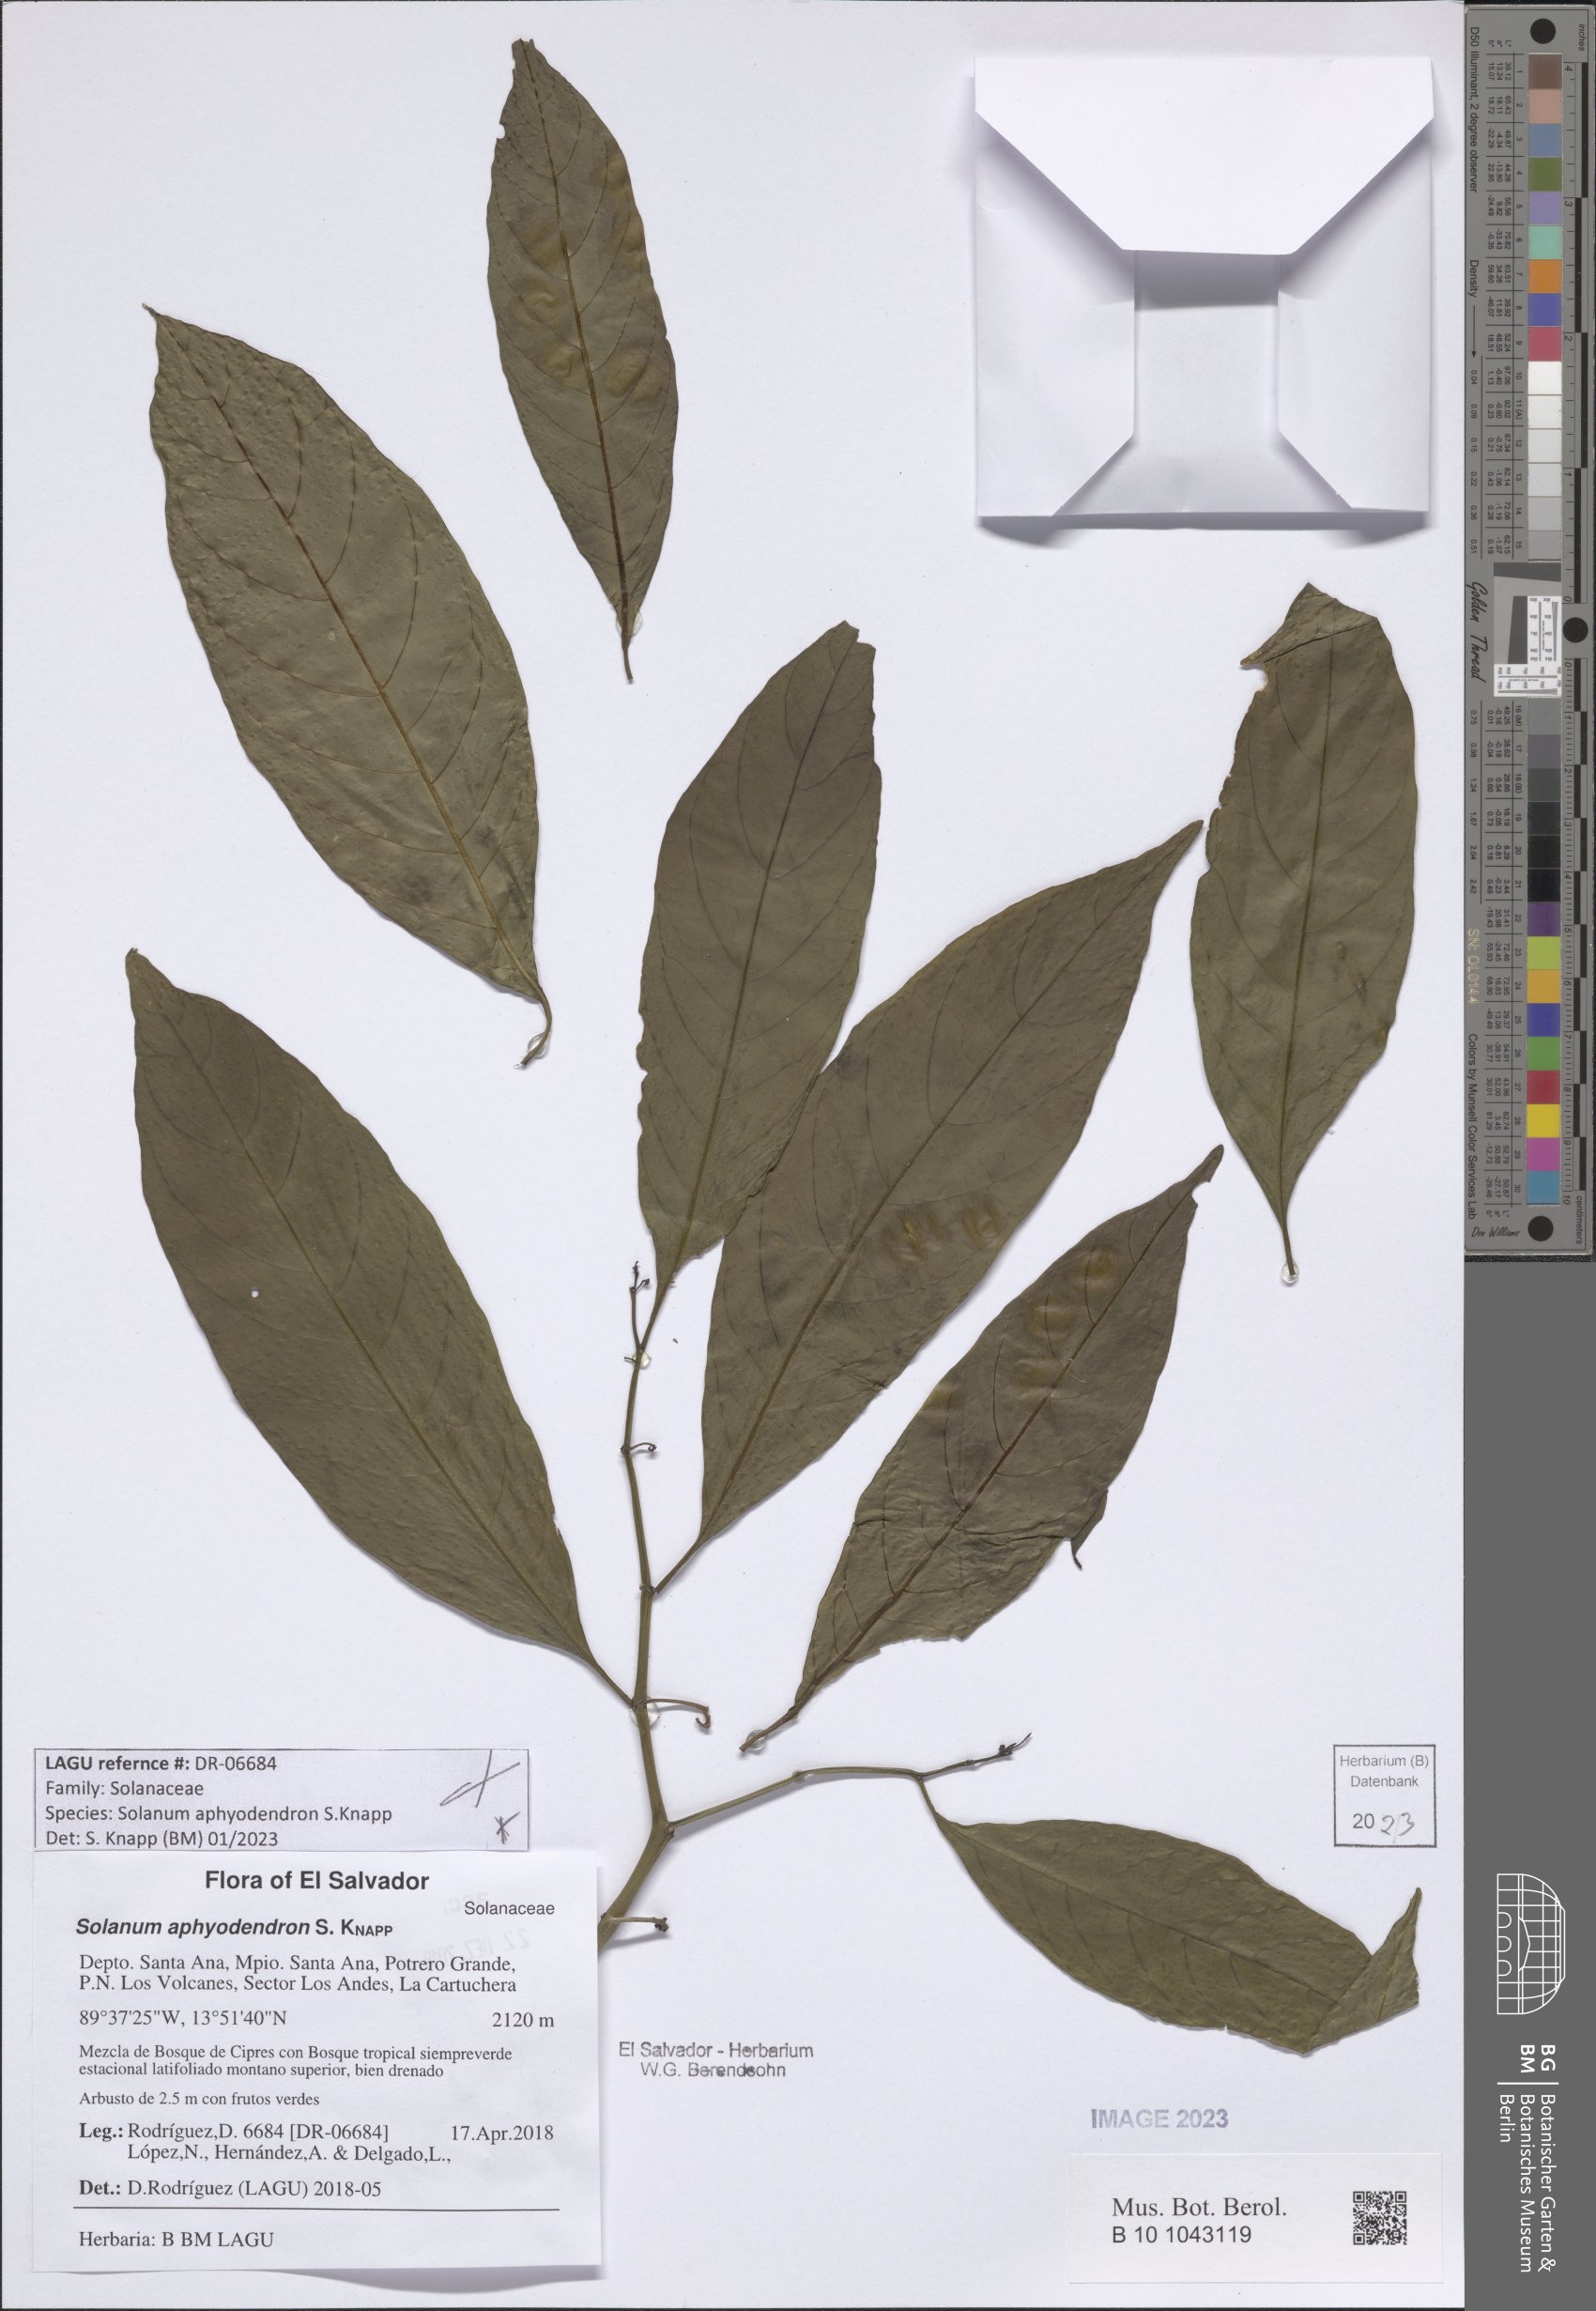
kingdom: Plantae
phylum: Tracheophyta
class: Magnoliopsida
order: Solanales
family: Solanaceae
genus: Solanum
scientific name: Solanum aphyodendron
